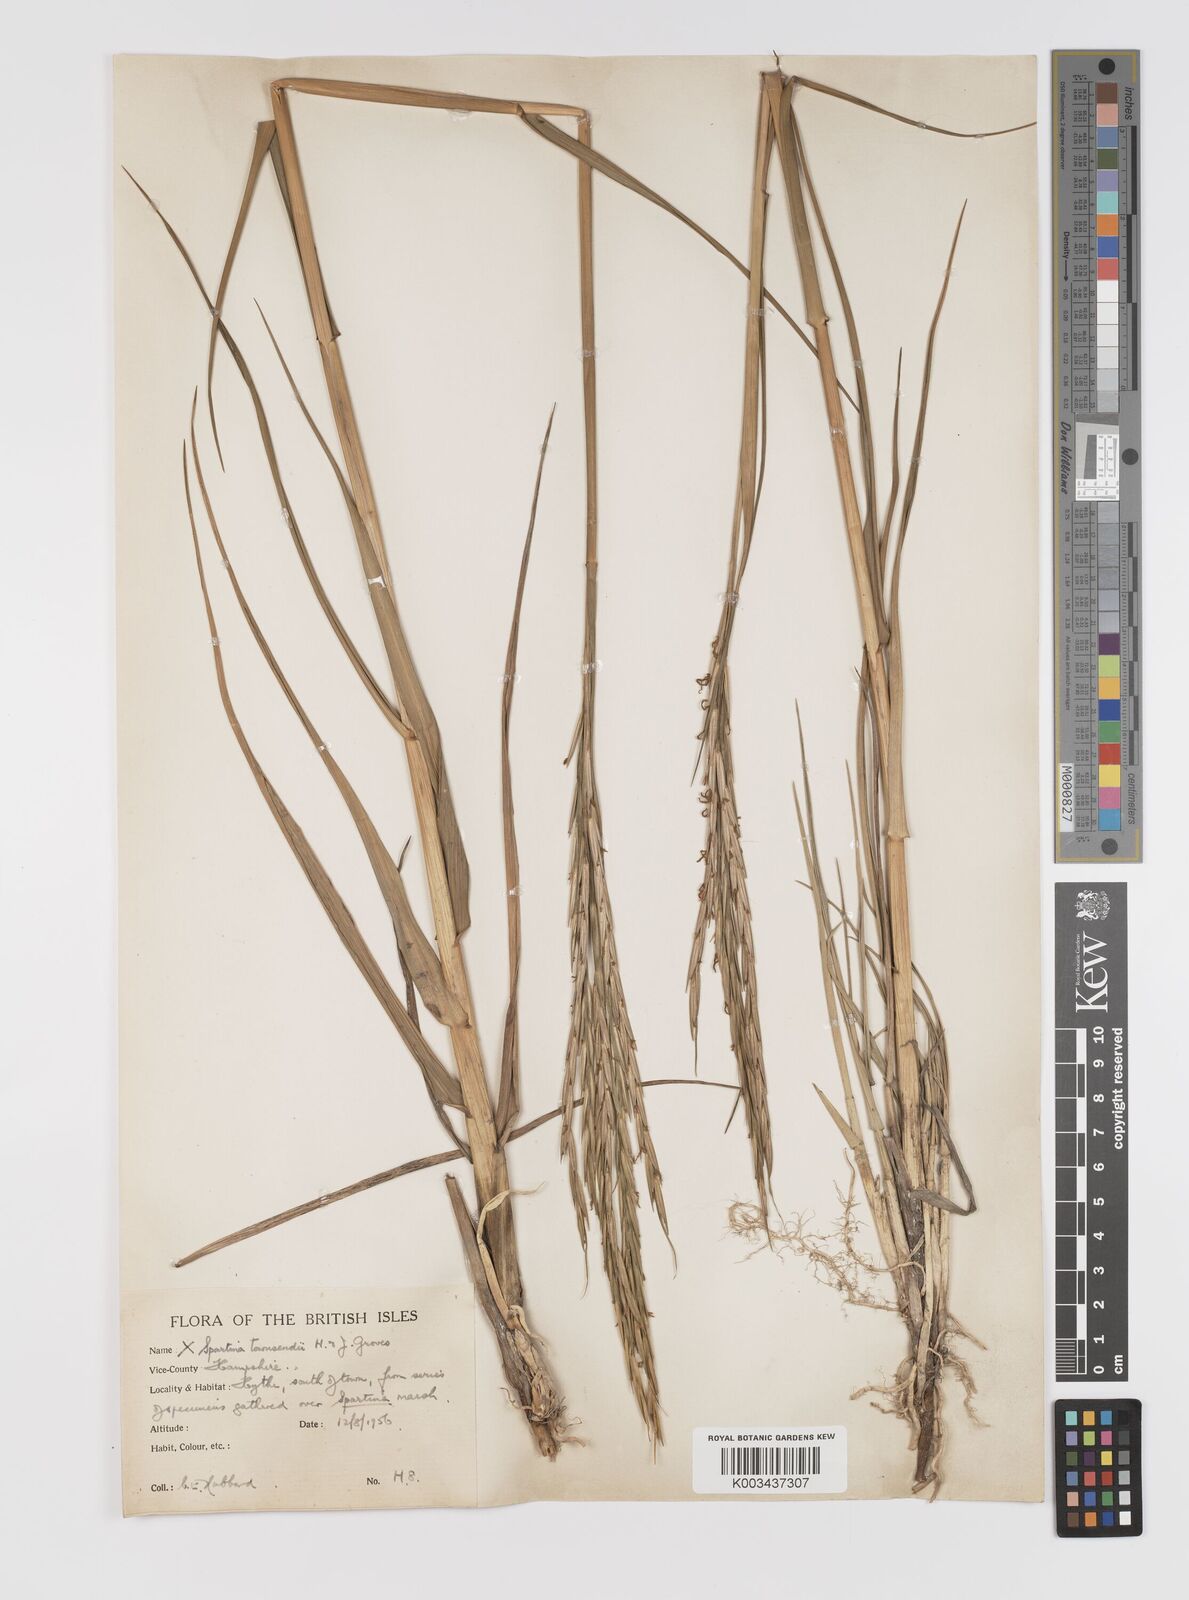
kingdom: Plantae
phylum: Tracheophyta
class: Liliopsida
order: Poales
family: Poaceae
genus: Sporobolus
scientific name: Sporobolus townsendii
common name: Townsend's cordgrass
